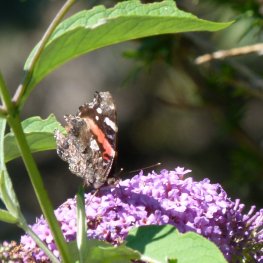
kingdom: Animalia
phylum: Arthropoda
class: Insecta
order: Lepidoptera
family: Nymphalidae
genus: Vanessa
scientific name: Vanessa atalanta
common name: Red Admiral
